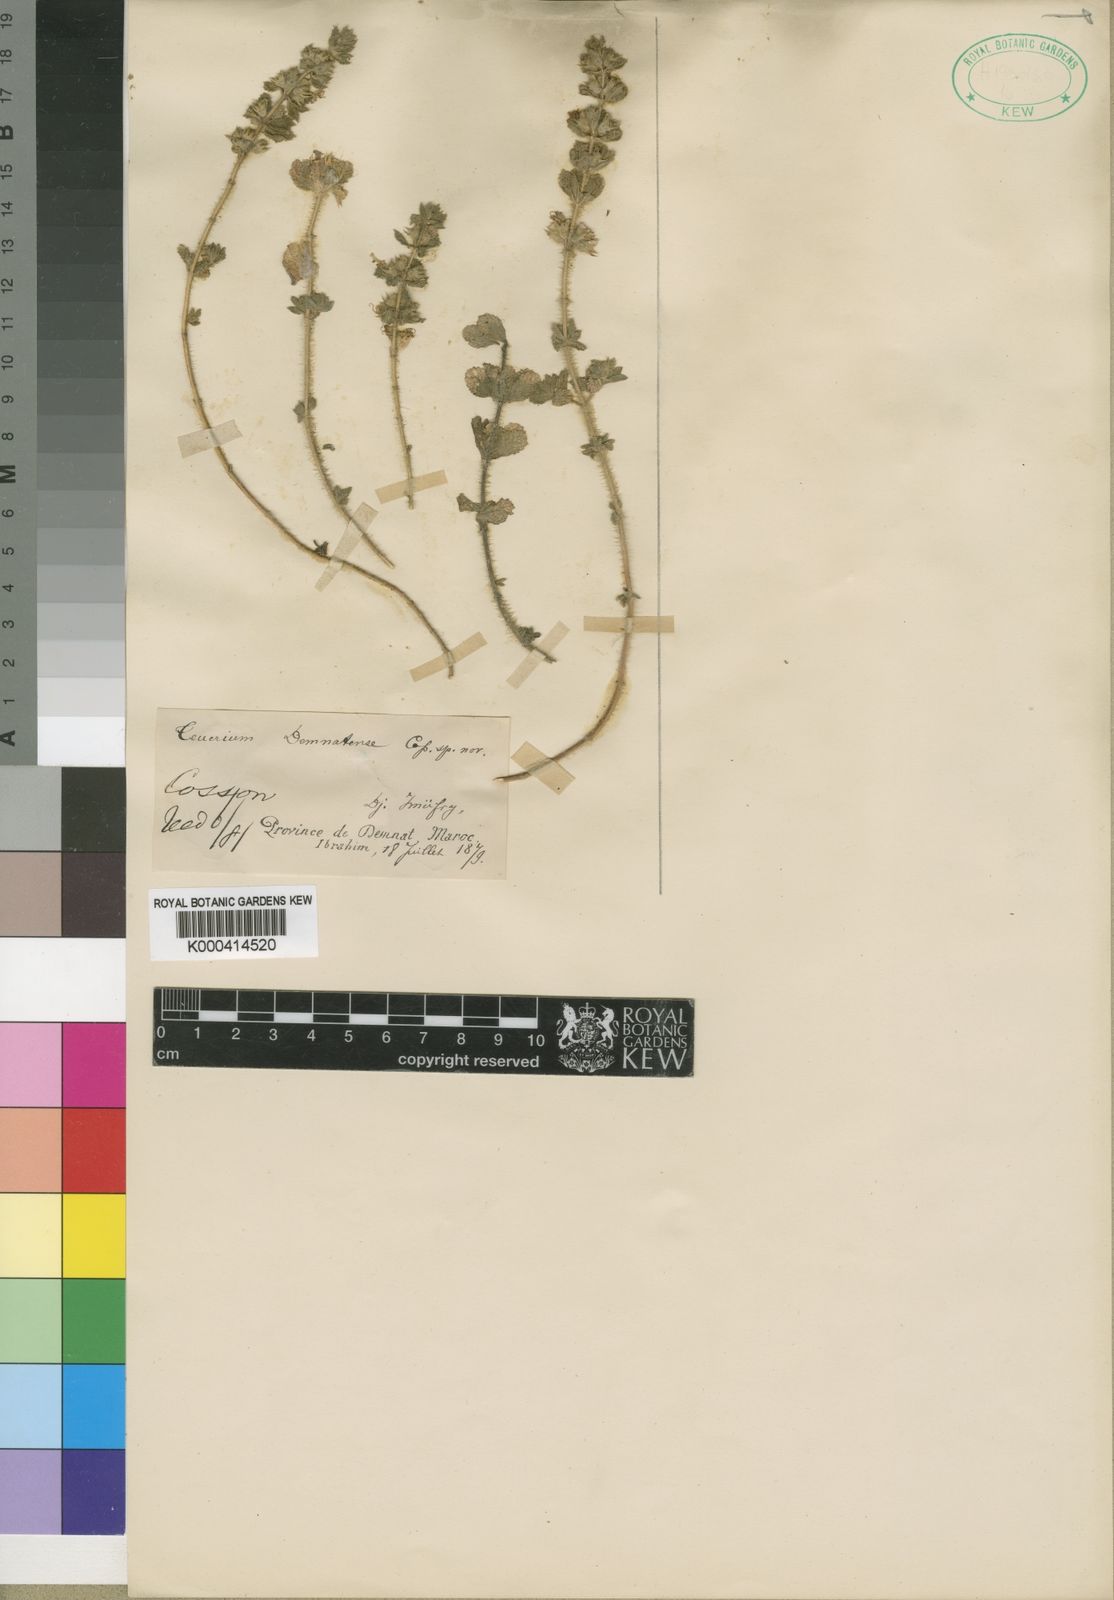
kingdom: Plantae
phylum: Tracheophyta
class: Magnoliopsida
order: Lamiales
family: Lamiaceae
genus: Teucrium
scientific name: Teucrium
